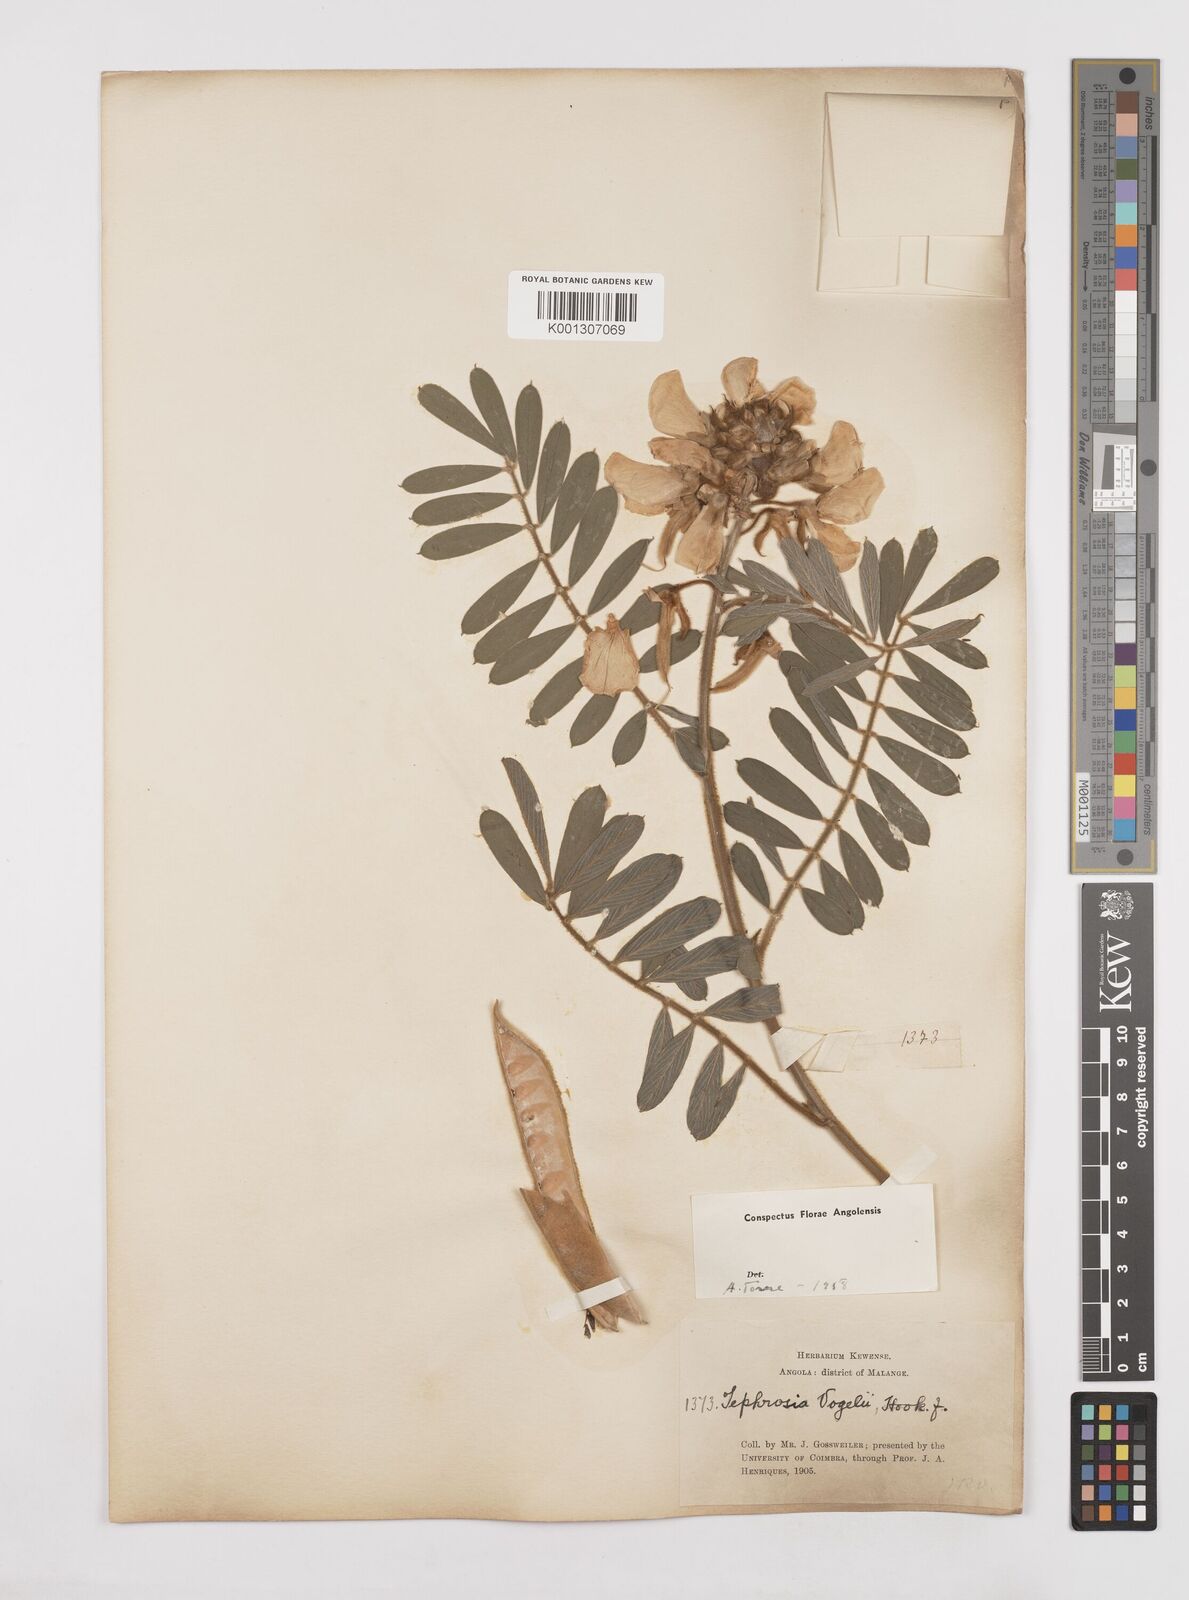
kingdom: Plantae
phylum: Tracheophyta
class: Magnoliopsida
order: Fabales
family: Fabaceae
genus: Tephrosia
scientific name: Tephrosia vogelii
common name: Vogel tephrosia
